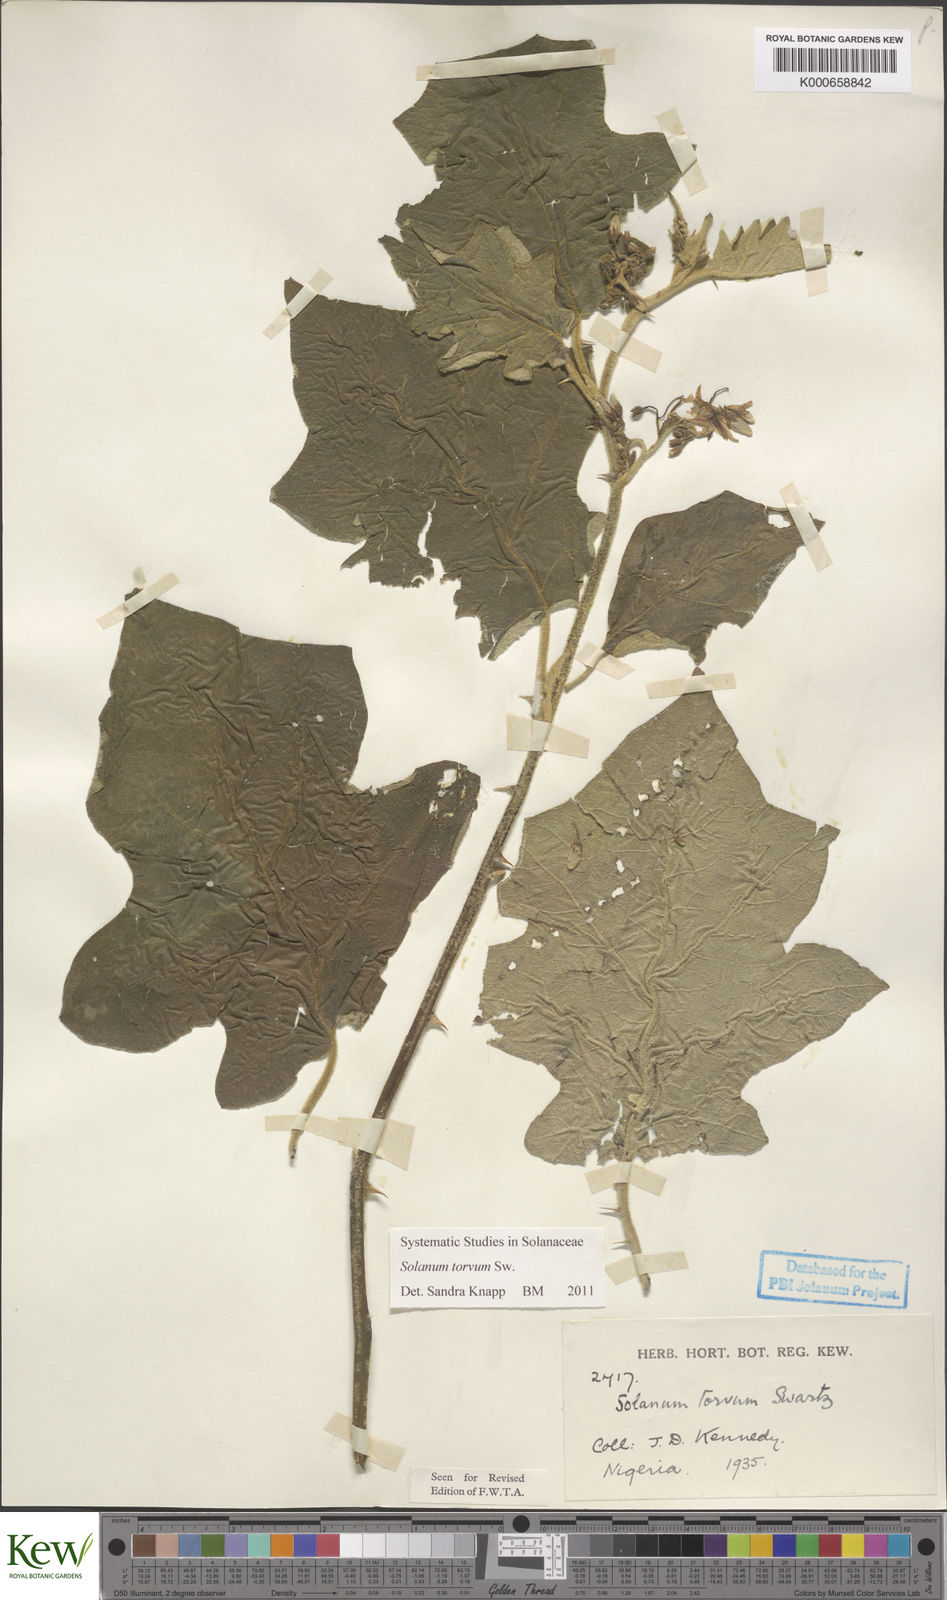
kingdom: Plantae
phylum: Tracheophyta
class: Magnoliopsida
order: Solanales
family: Solanaceae
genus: Solanum
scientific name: Solanum torvum
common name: Turkey berry
